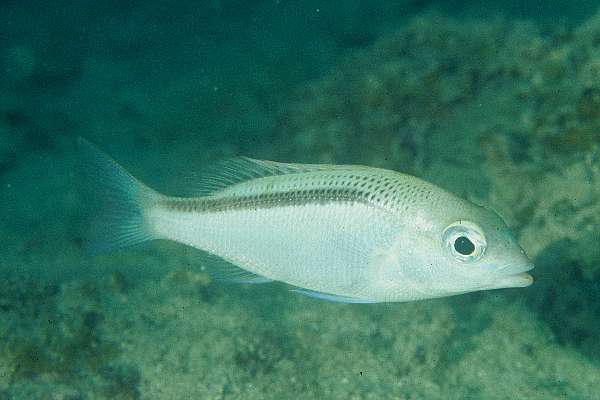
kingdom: Animalia
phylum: Chordata
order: Perciformes
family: Nemipteridae
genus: Scolopsis
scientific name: Scolopsis taeniata
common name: Blackstreaked monocle bream
